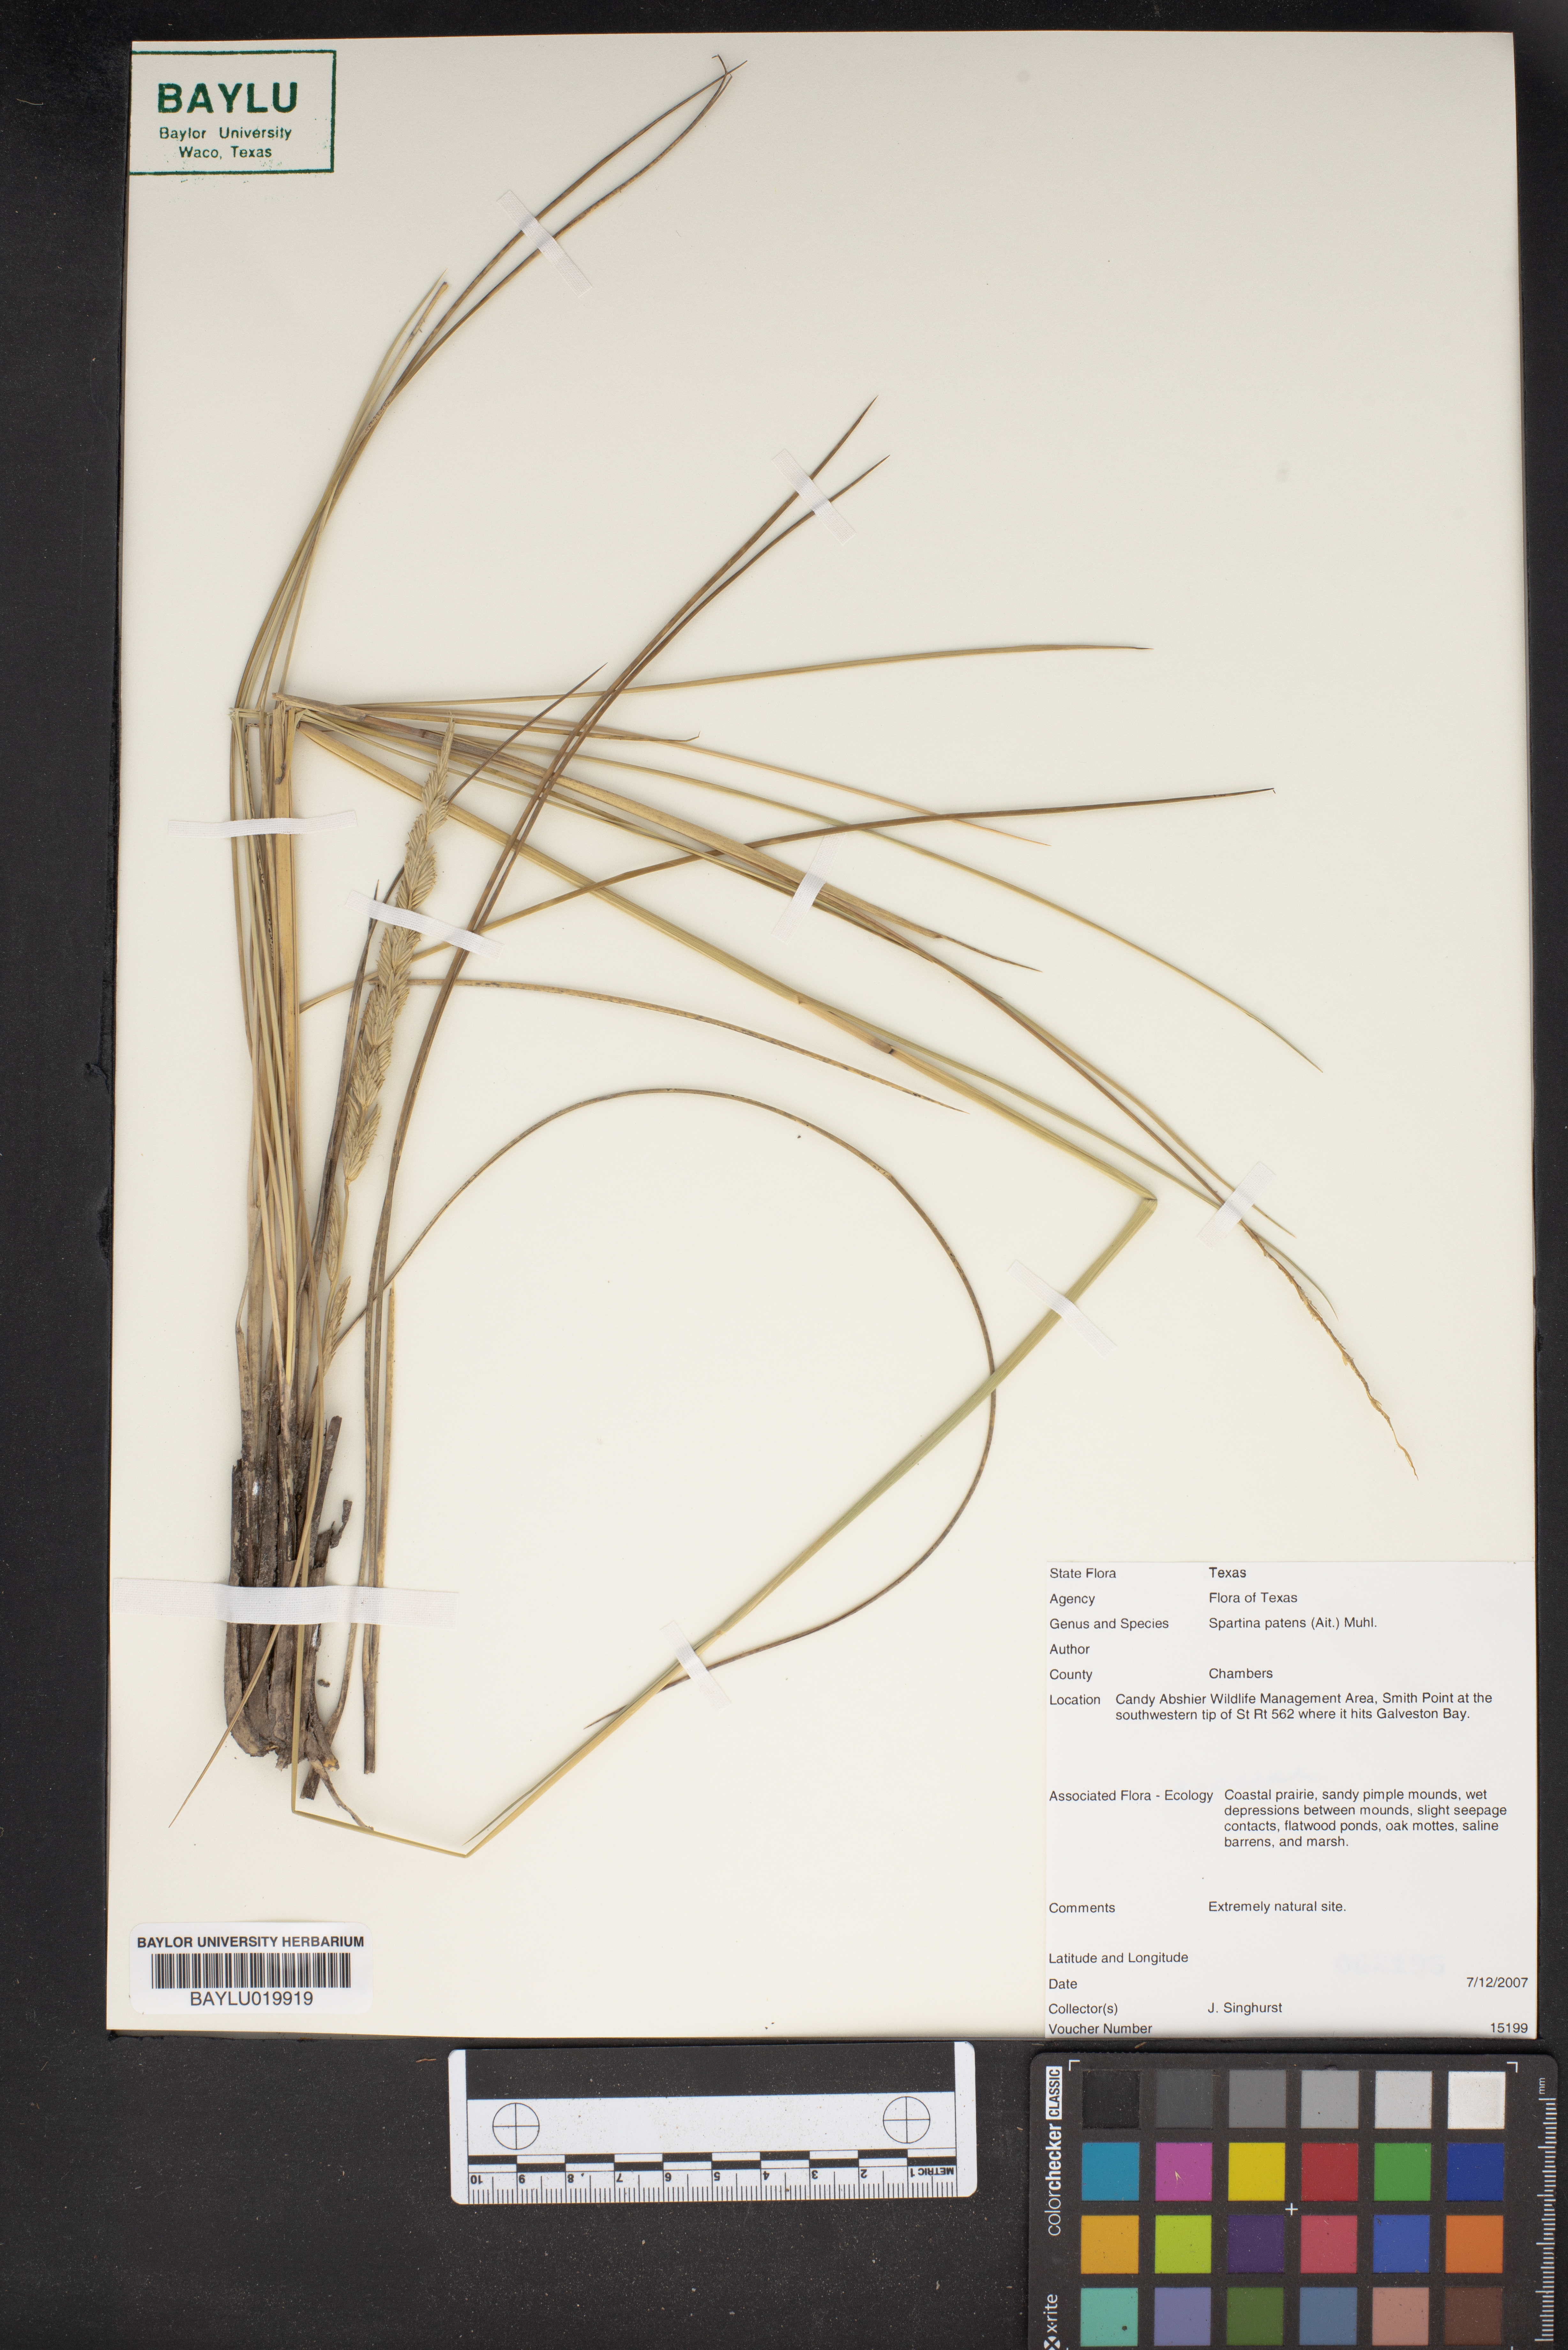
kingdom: Plantae
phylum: Tracheophyta
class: Liliopsida
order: Poales
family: Poaceae
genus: Sporobolus
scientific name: Sporobolus pumilus
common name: Highwater grass
